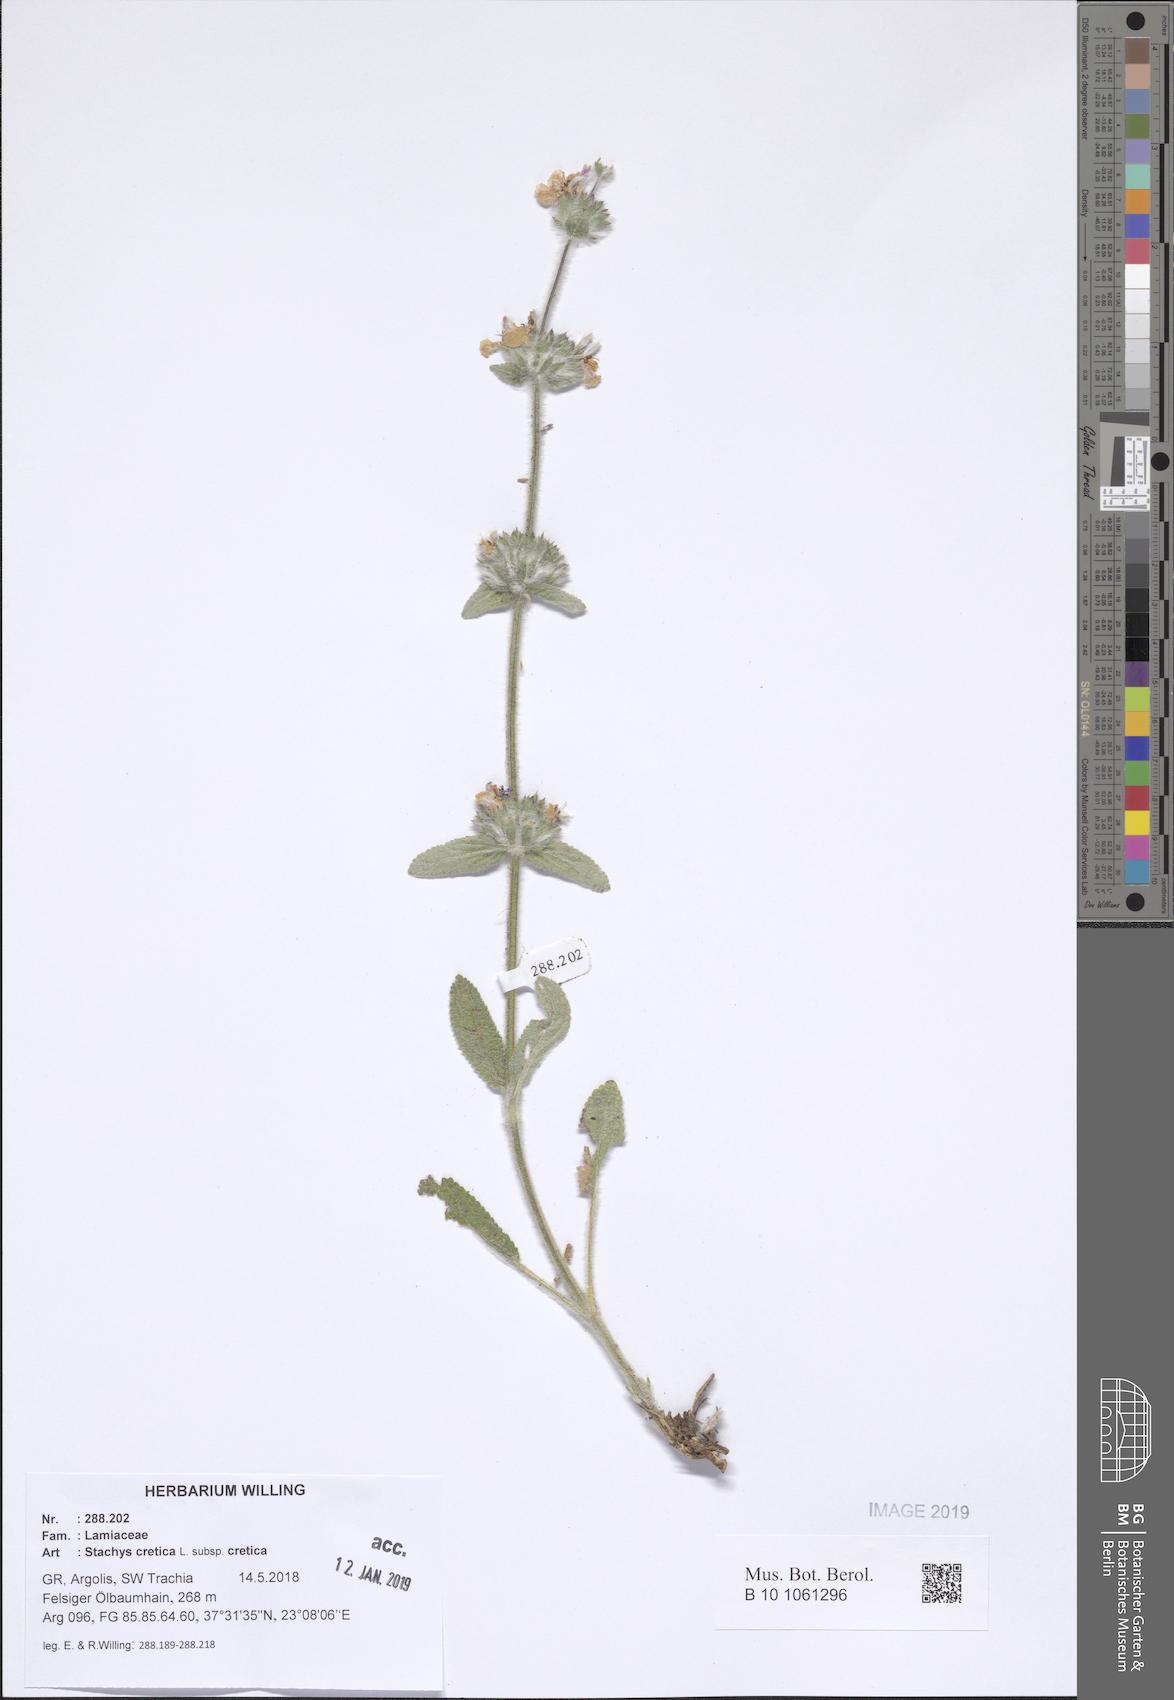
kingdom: Plantae
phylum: Tracheophyta
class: Liliopsida
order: Poales
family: Poaceae
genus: Lolium
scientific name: Lolium perenne
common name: Perennial ryegrass
